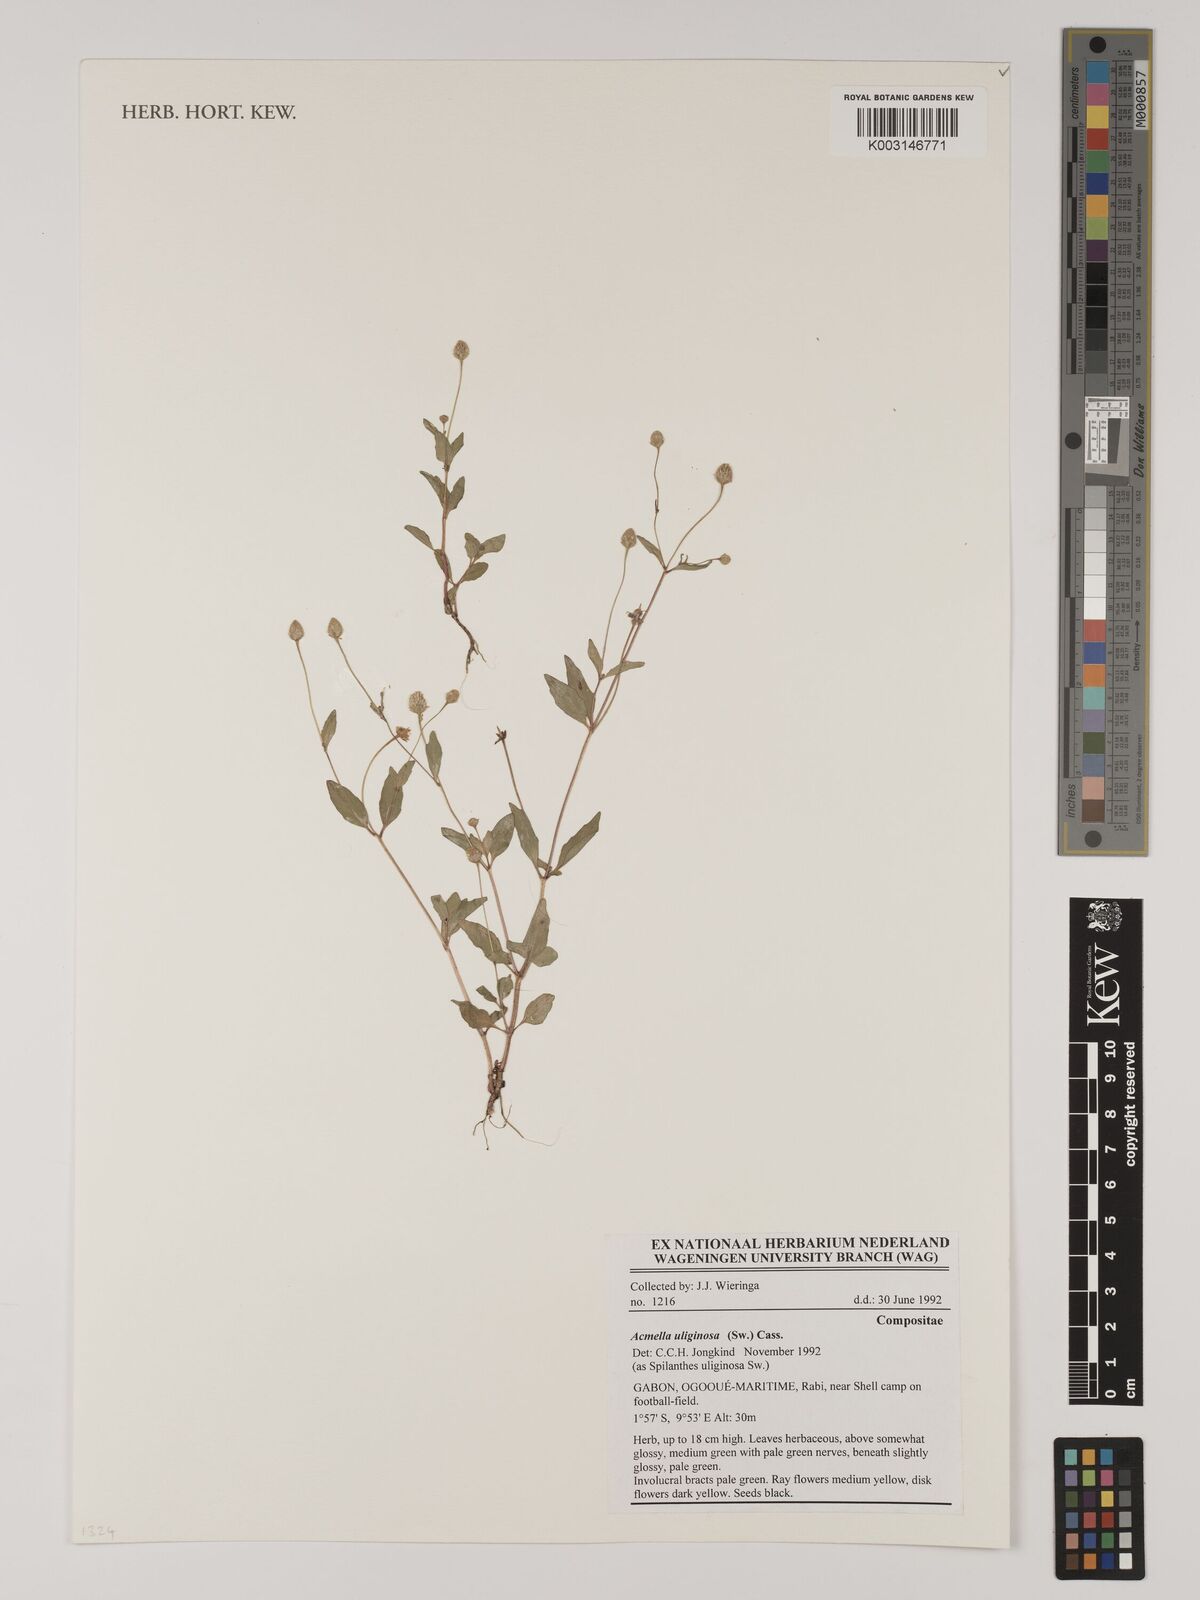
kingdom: Plantae
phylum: Tracheophyta
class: Magnoliopsida
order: Asterales
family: Asteraceae
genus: Acmella
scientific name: Acmella uliginosa
